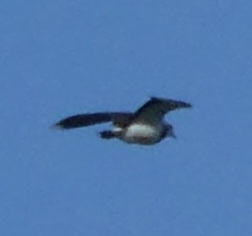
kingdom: Animalia
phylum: Chordata
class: Aves
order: Charadriiformes
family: Charadriidae
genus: Vanellus
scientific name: Vanellus vanellus
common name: Vibe
